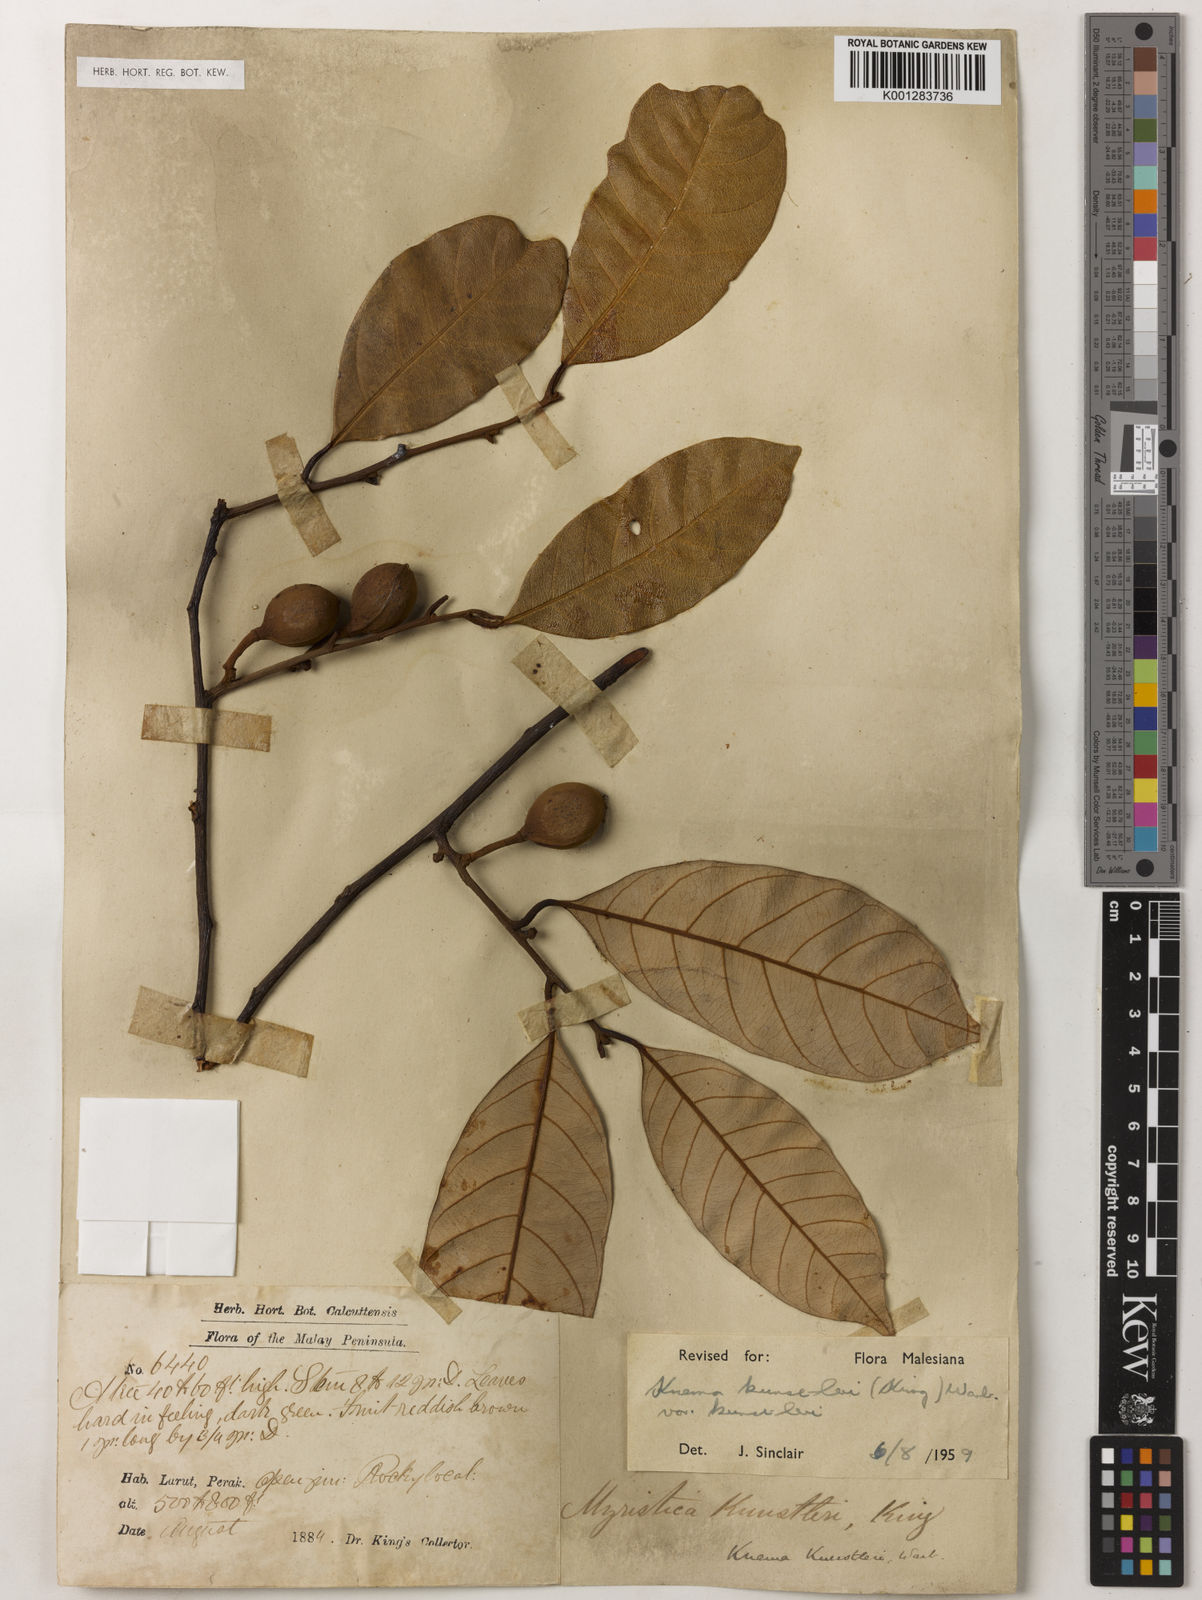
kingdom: Plantae
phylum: Tracheophyta
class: Magnoliopsida
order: Magnoliales
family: Myristicaceae
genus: Knema
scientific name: Knema kunstleri
